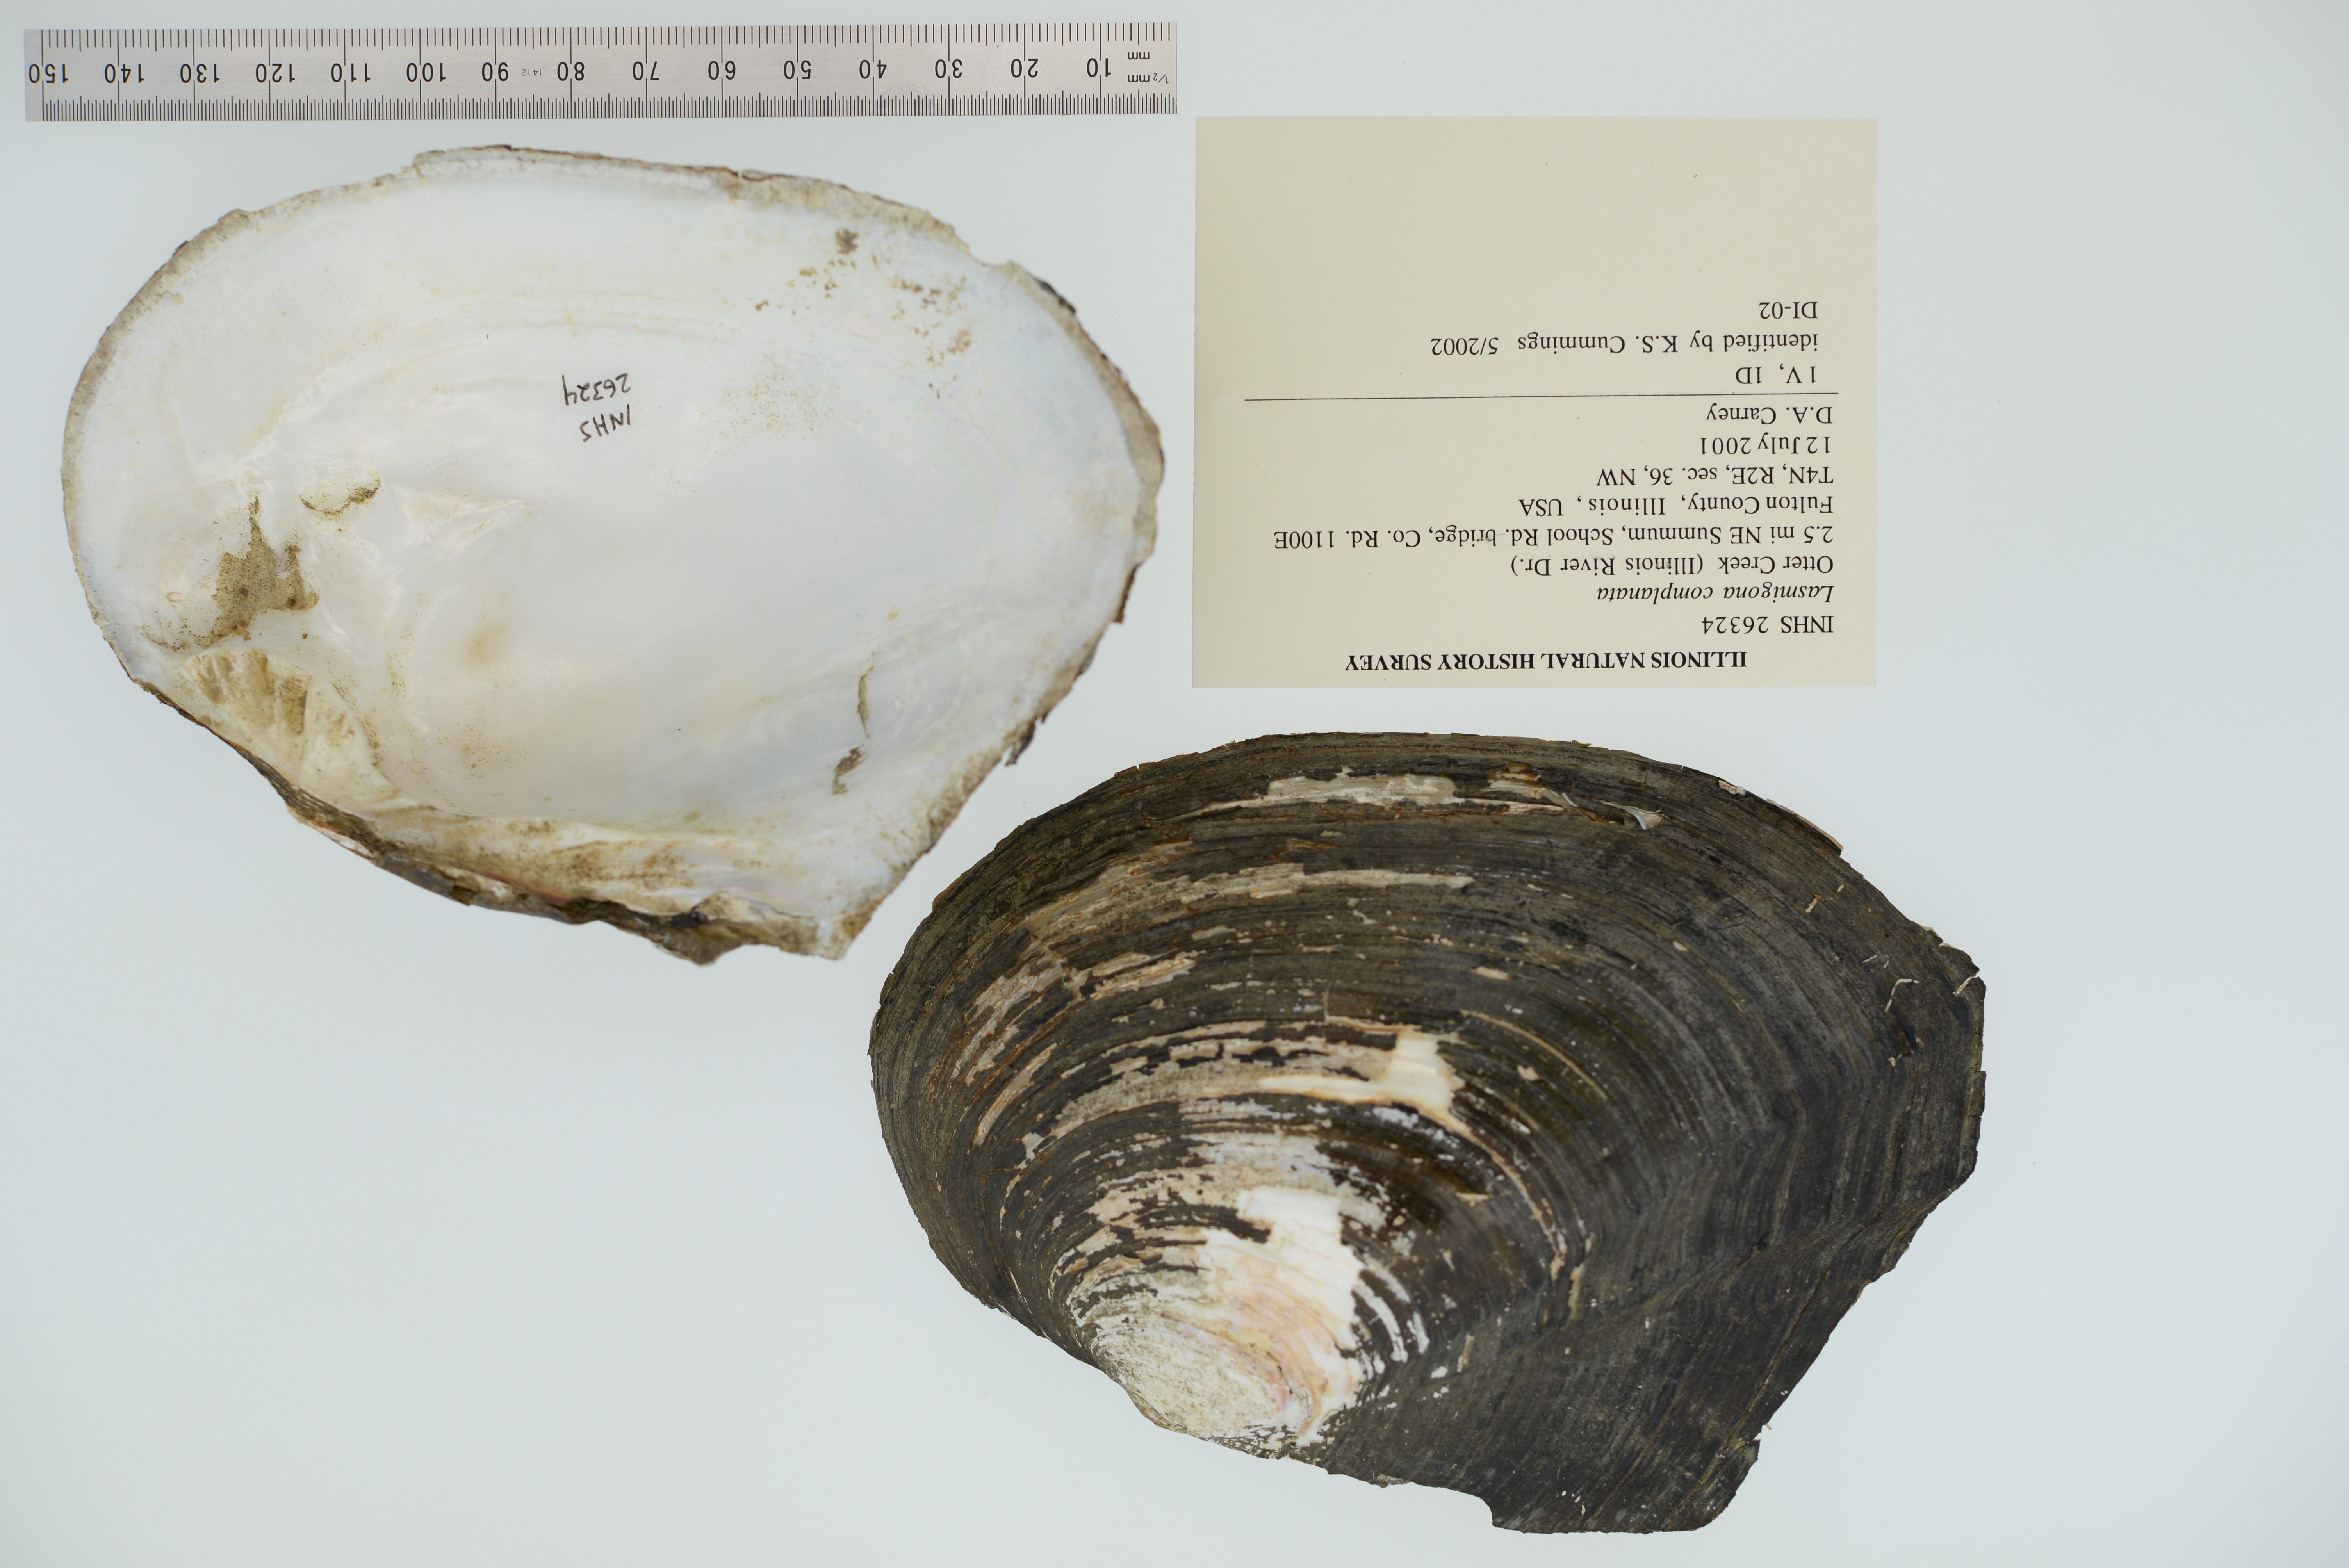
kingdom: Animalia
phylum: Mollusca
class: Bivalvia
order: Unionida
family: Unionidae
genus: Lasmigona
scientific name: Lasmigona complanata
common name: White heelsplitter
